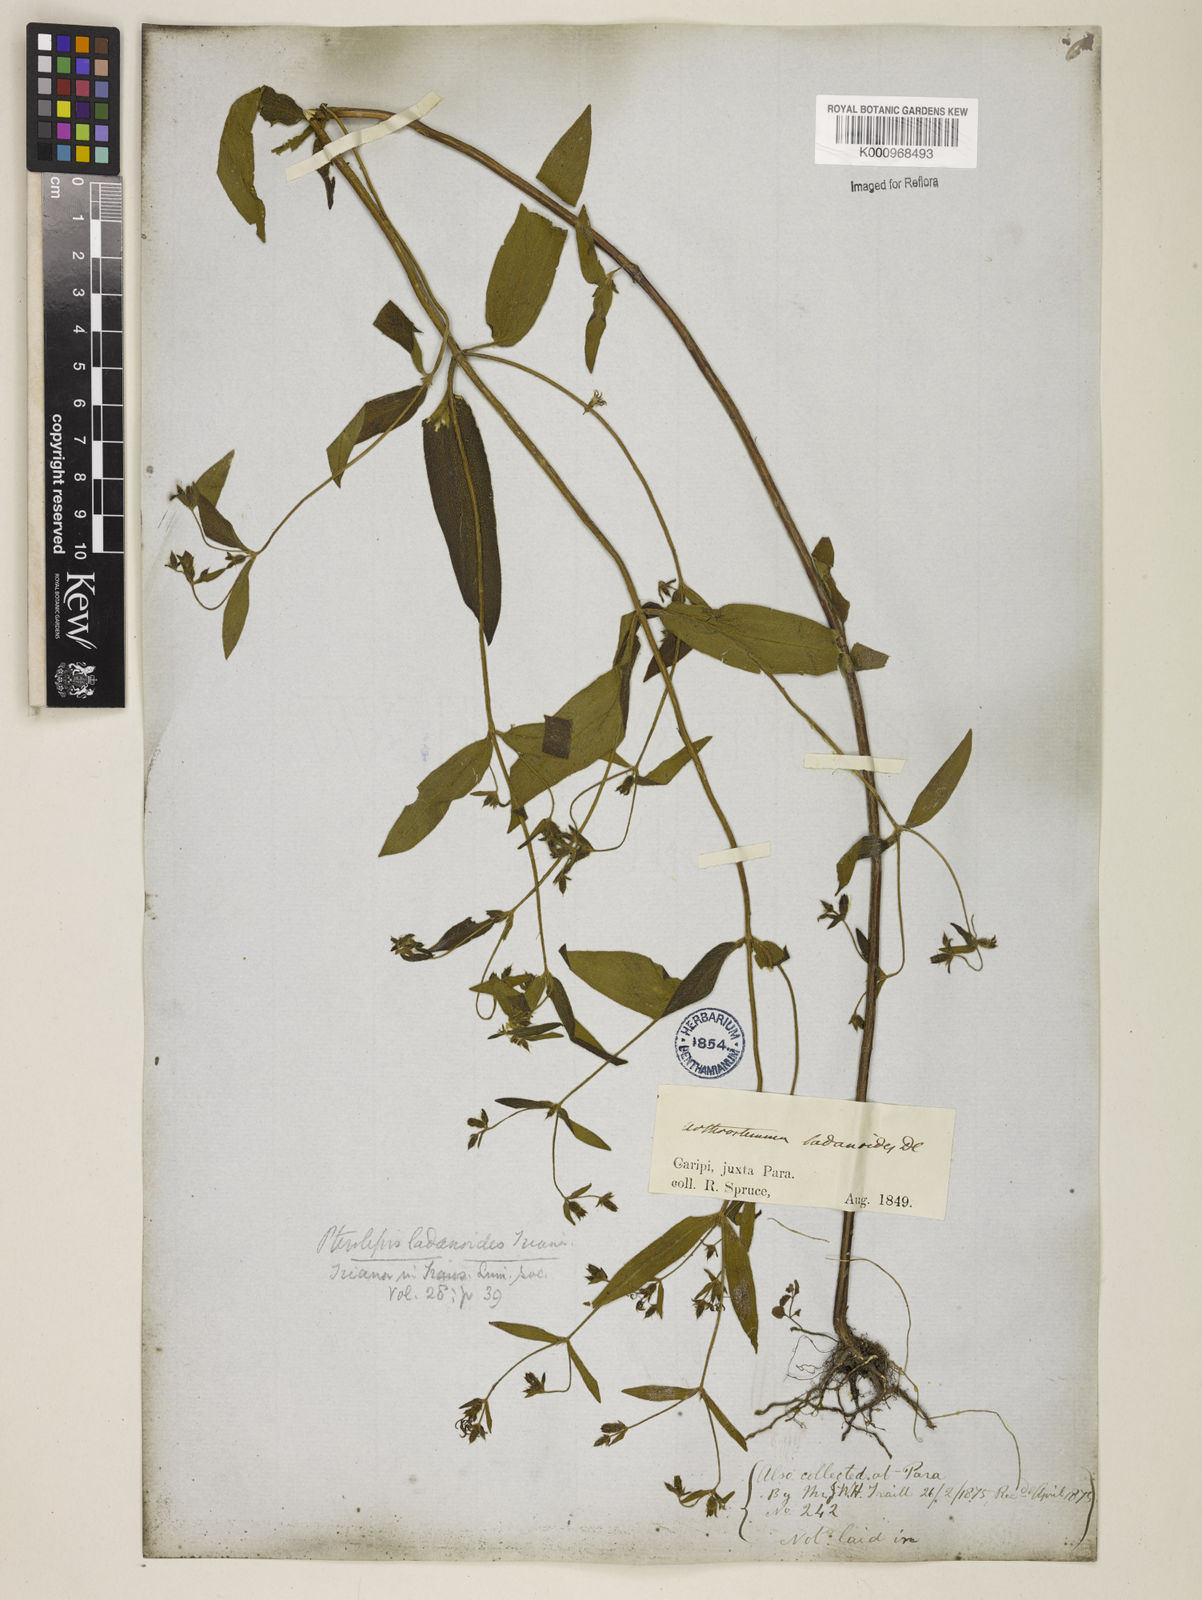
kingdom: Plantae
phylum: Tracheophyta
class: Magnoliopsida
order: Myrtales
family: Melastomataceae
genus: Pterolepis
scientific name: Pterolepis trichotoma
